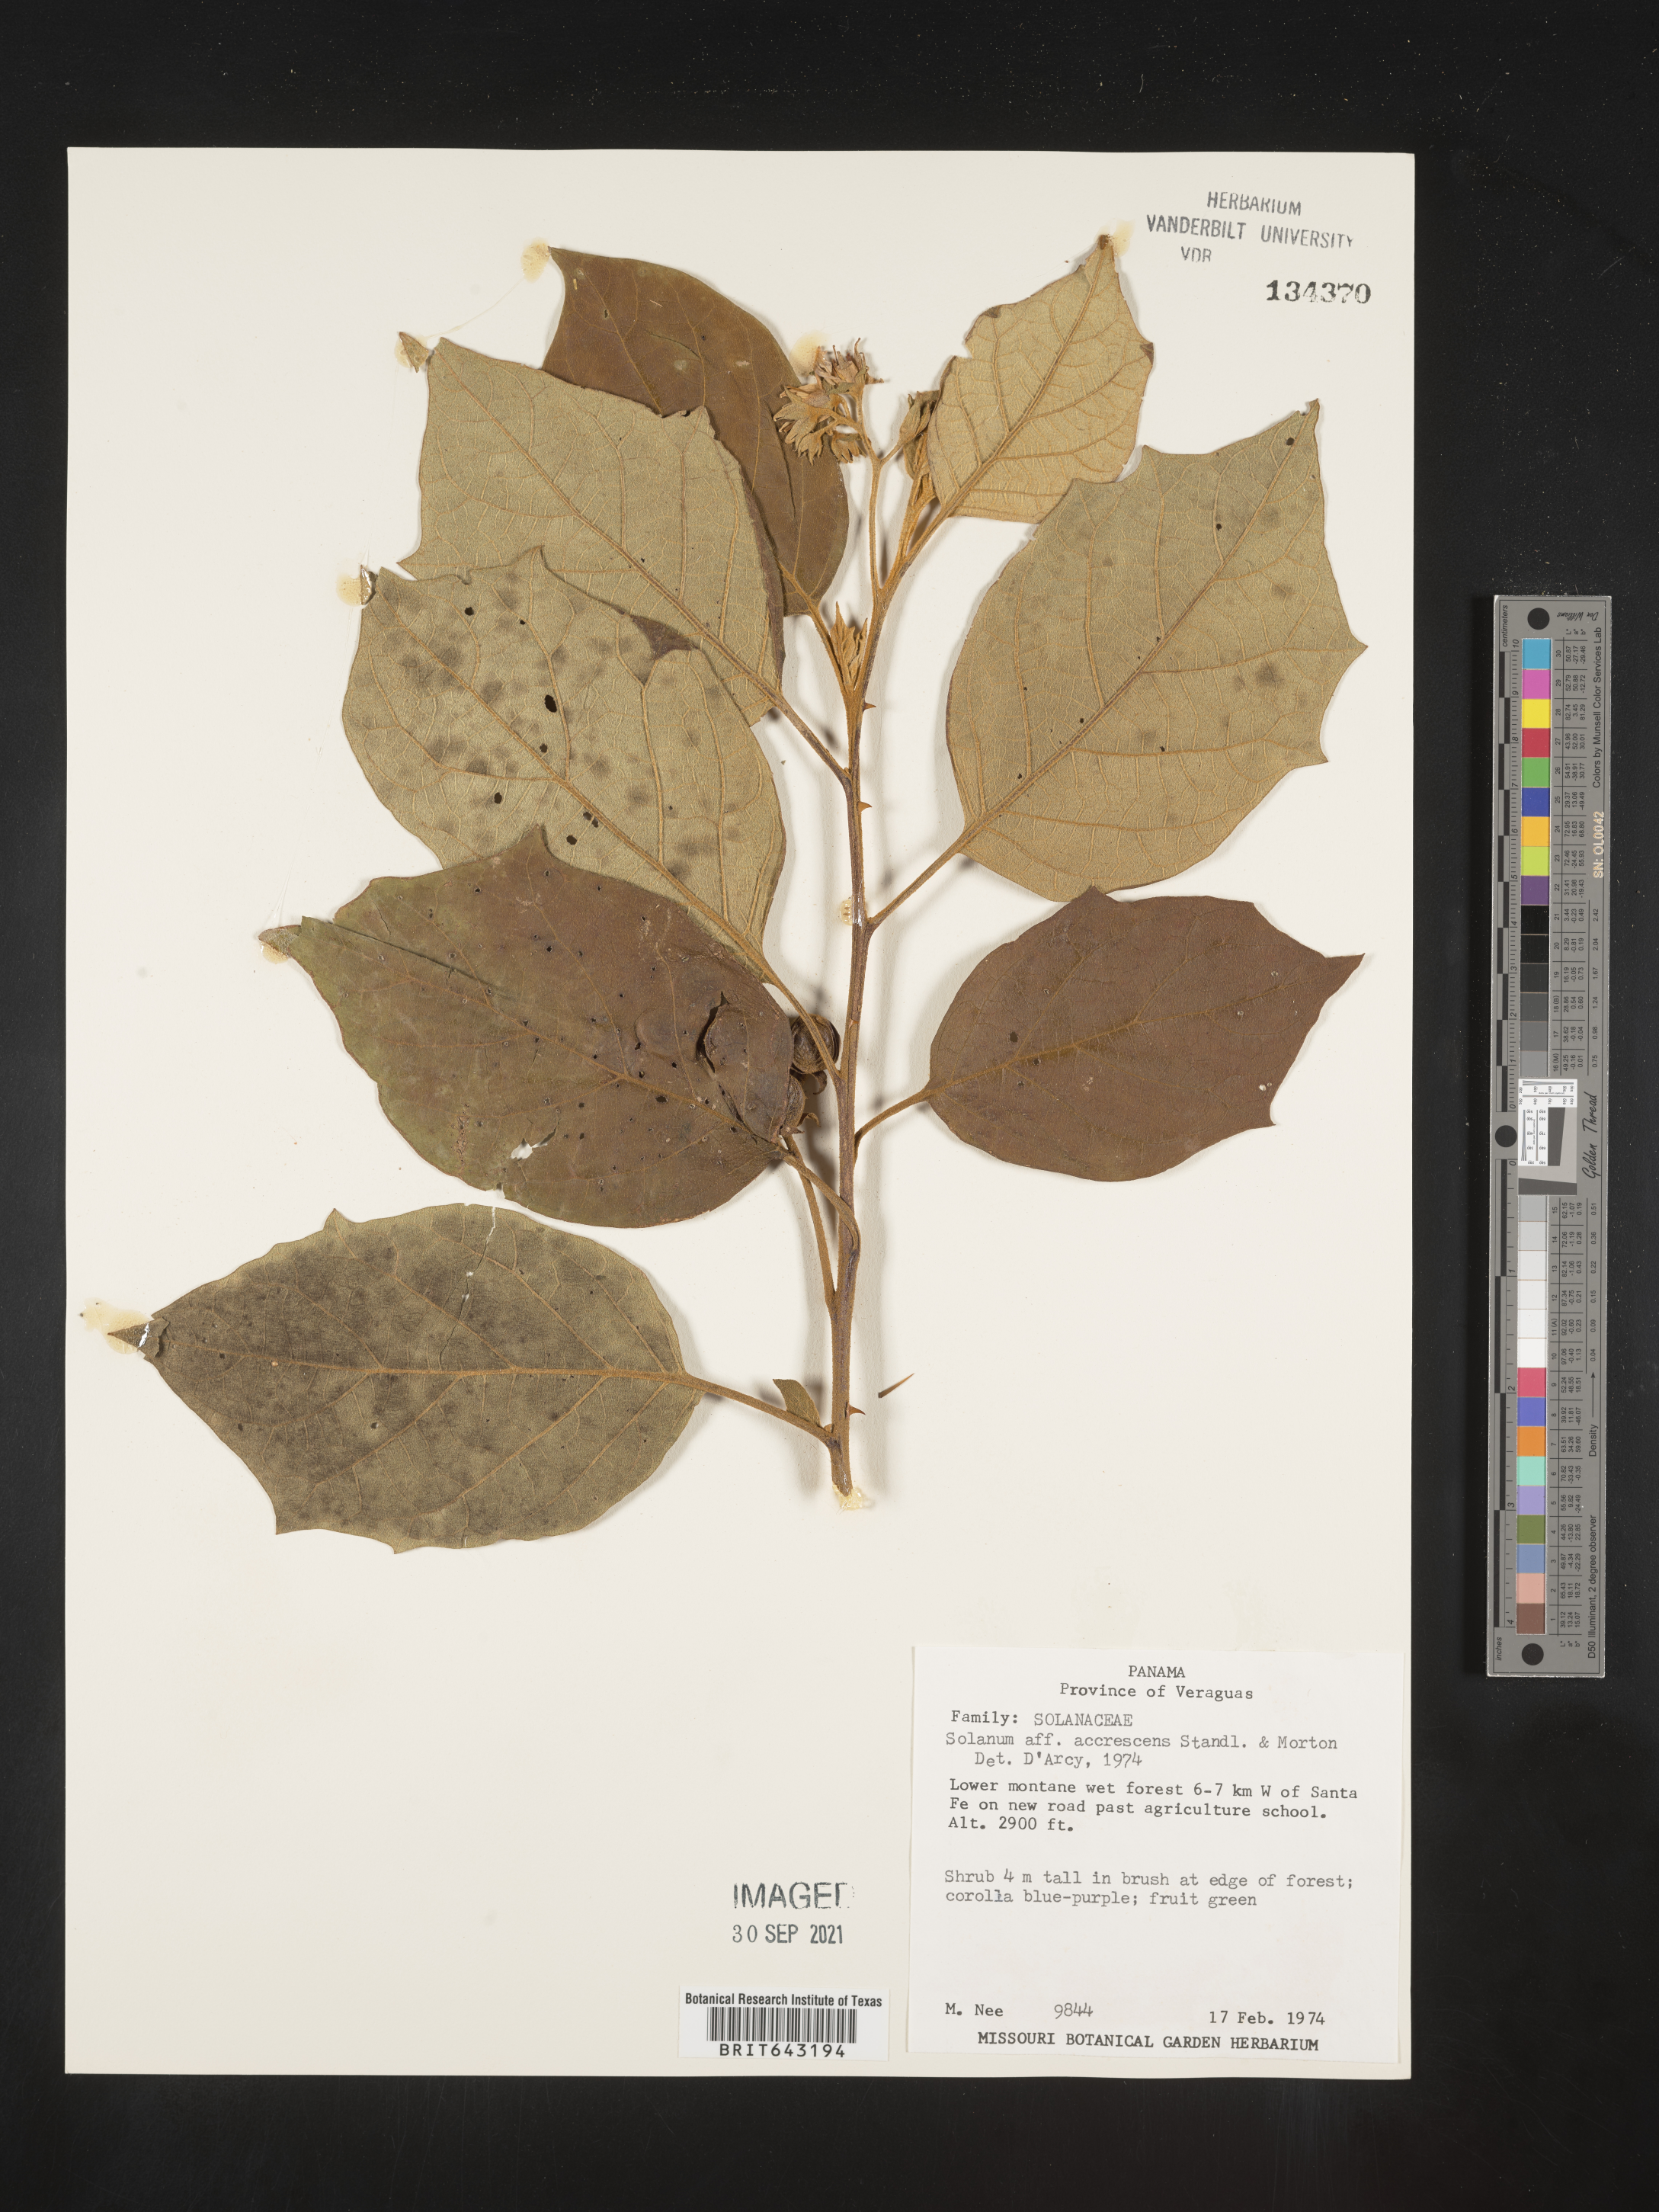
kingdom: Plantae
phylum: Tracheophyta
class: Magnoliopsida
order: Solanales
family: Solanaceae
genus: Solanum
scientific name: Solanum
